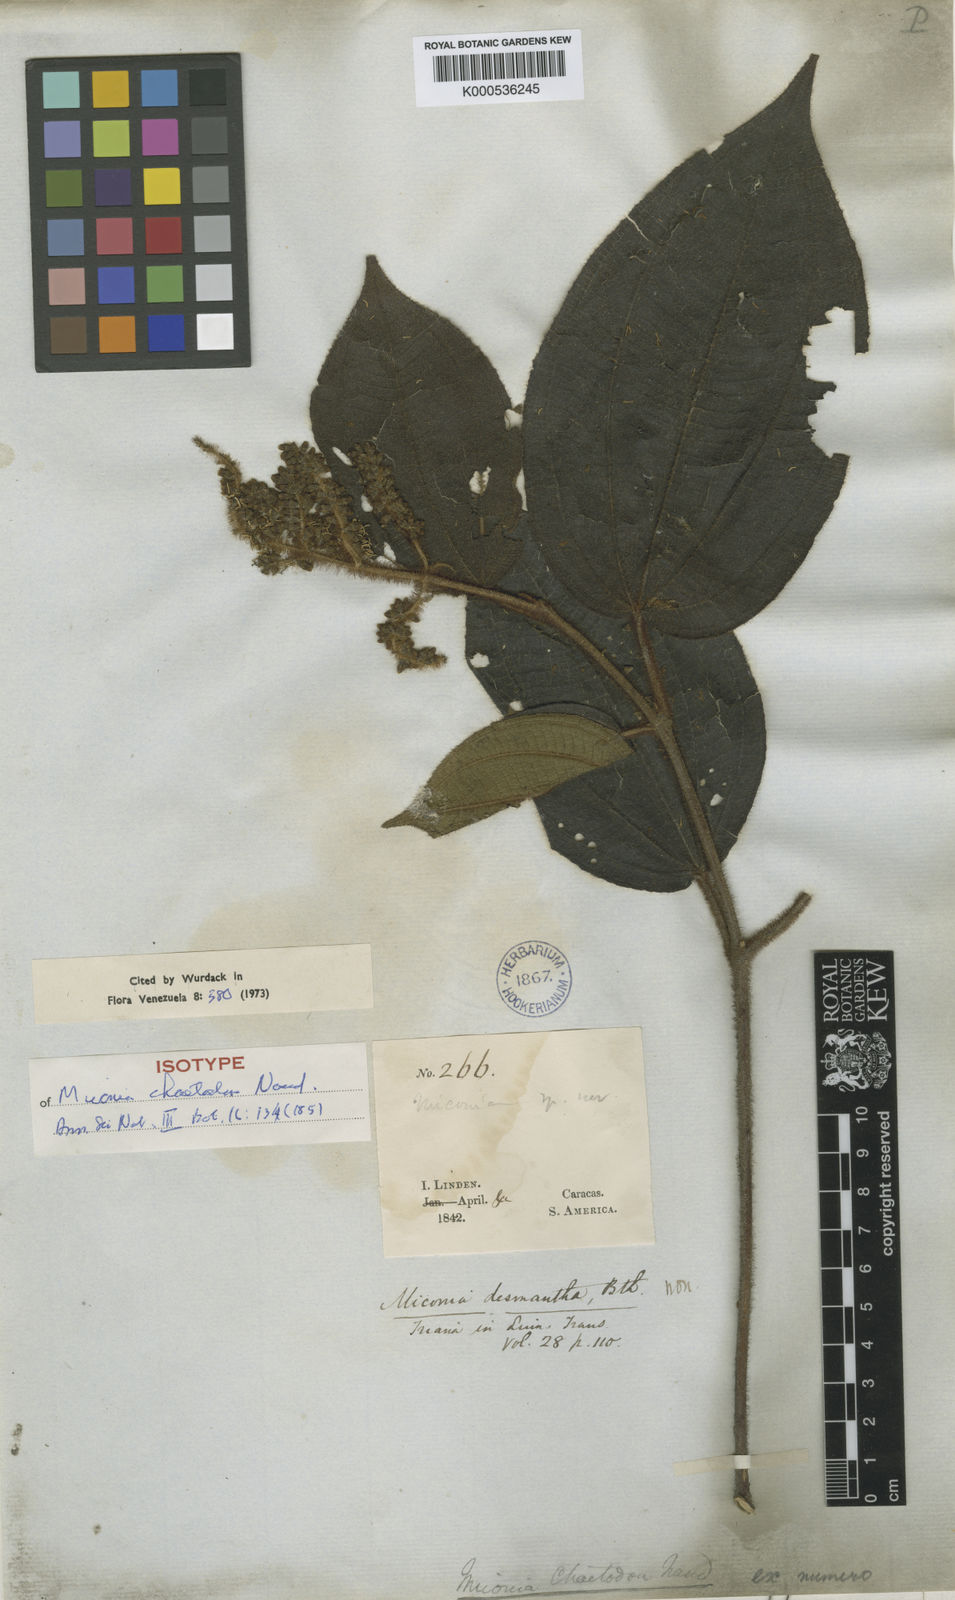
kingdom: Plantae
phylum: Tracheophyta
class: Magnoliopsida
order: Myrtales
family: Melastomataceae
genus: Miconia
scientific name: Miconia chaetodon
